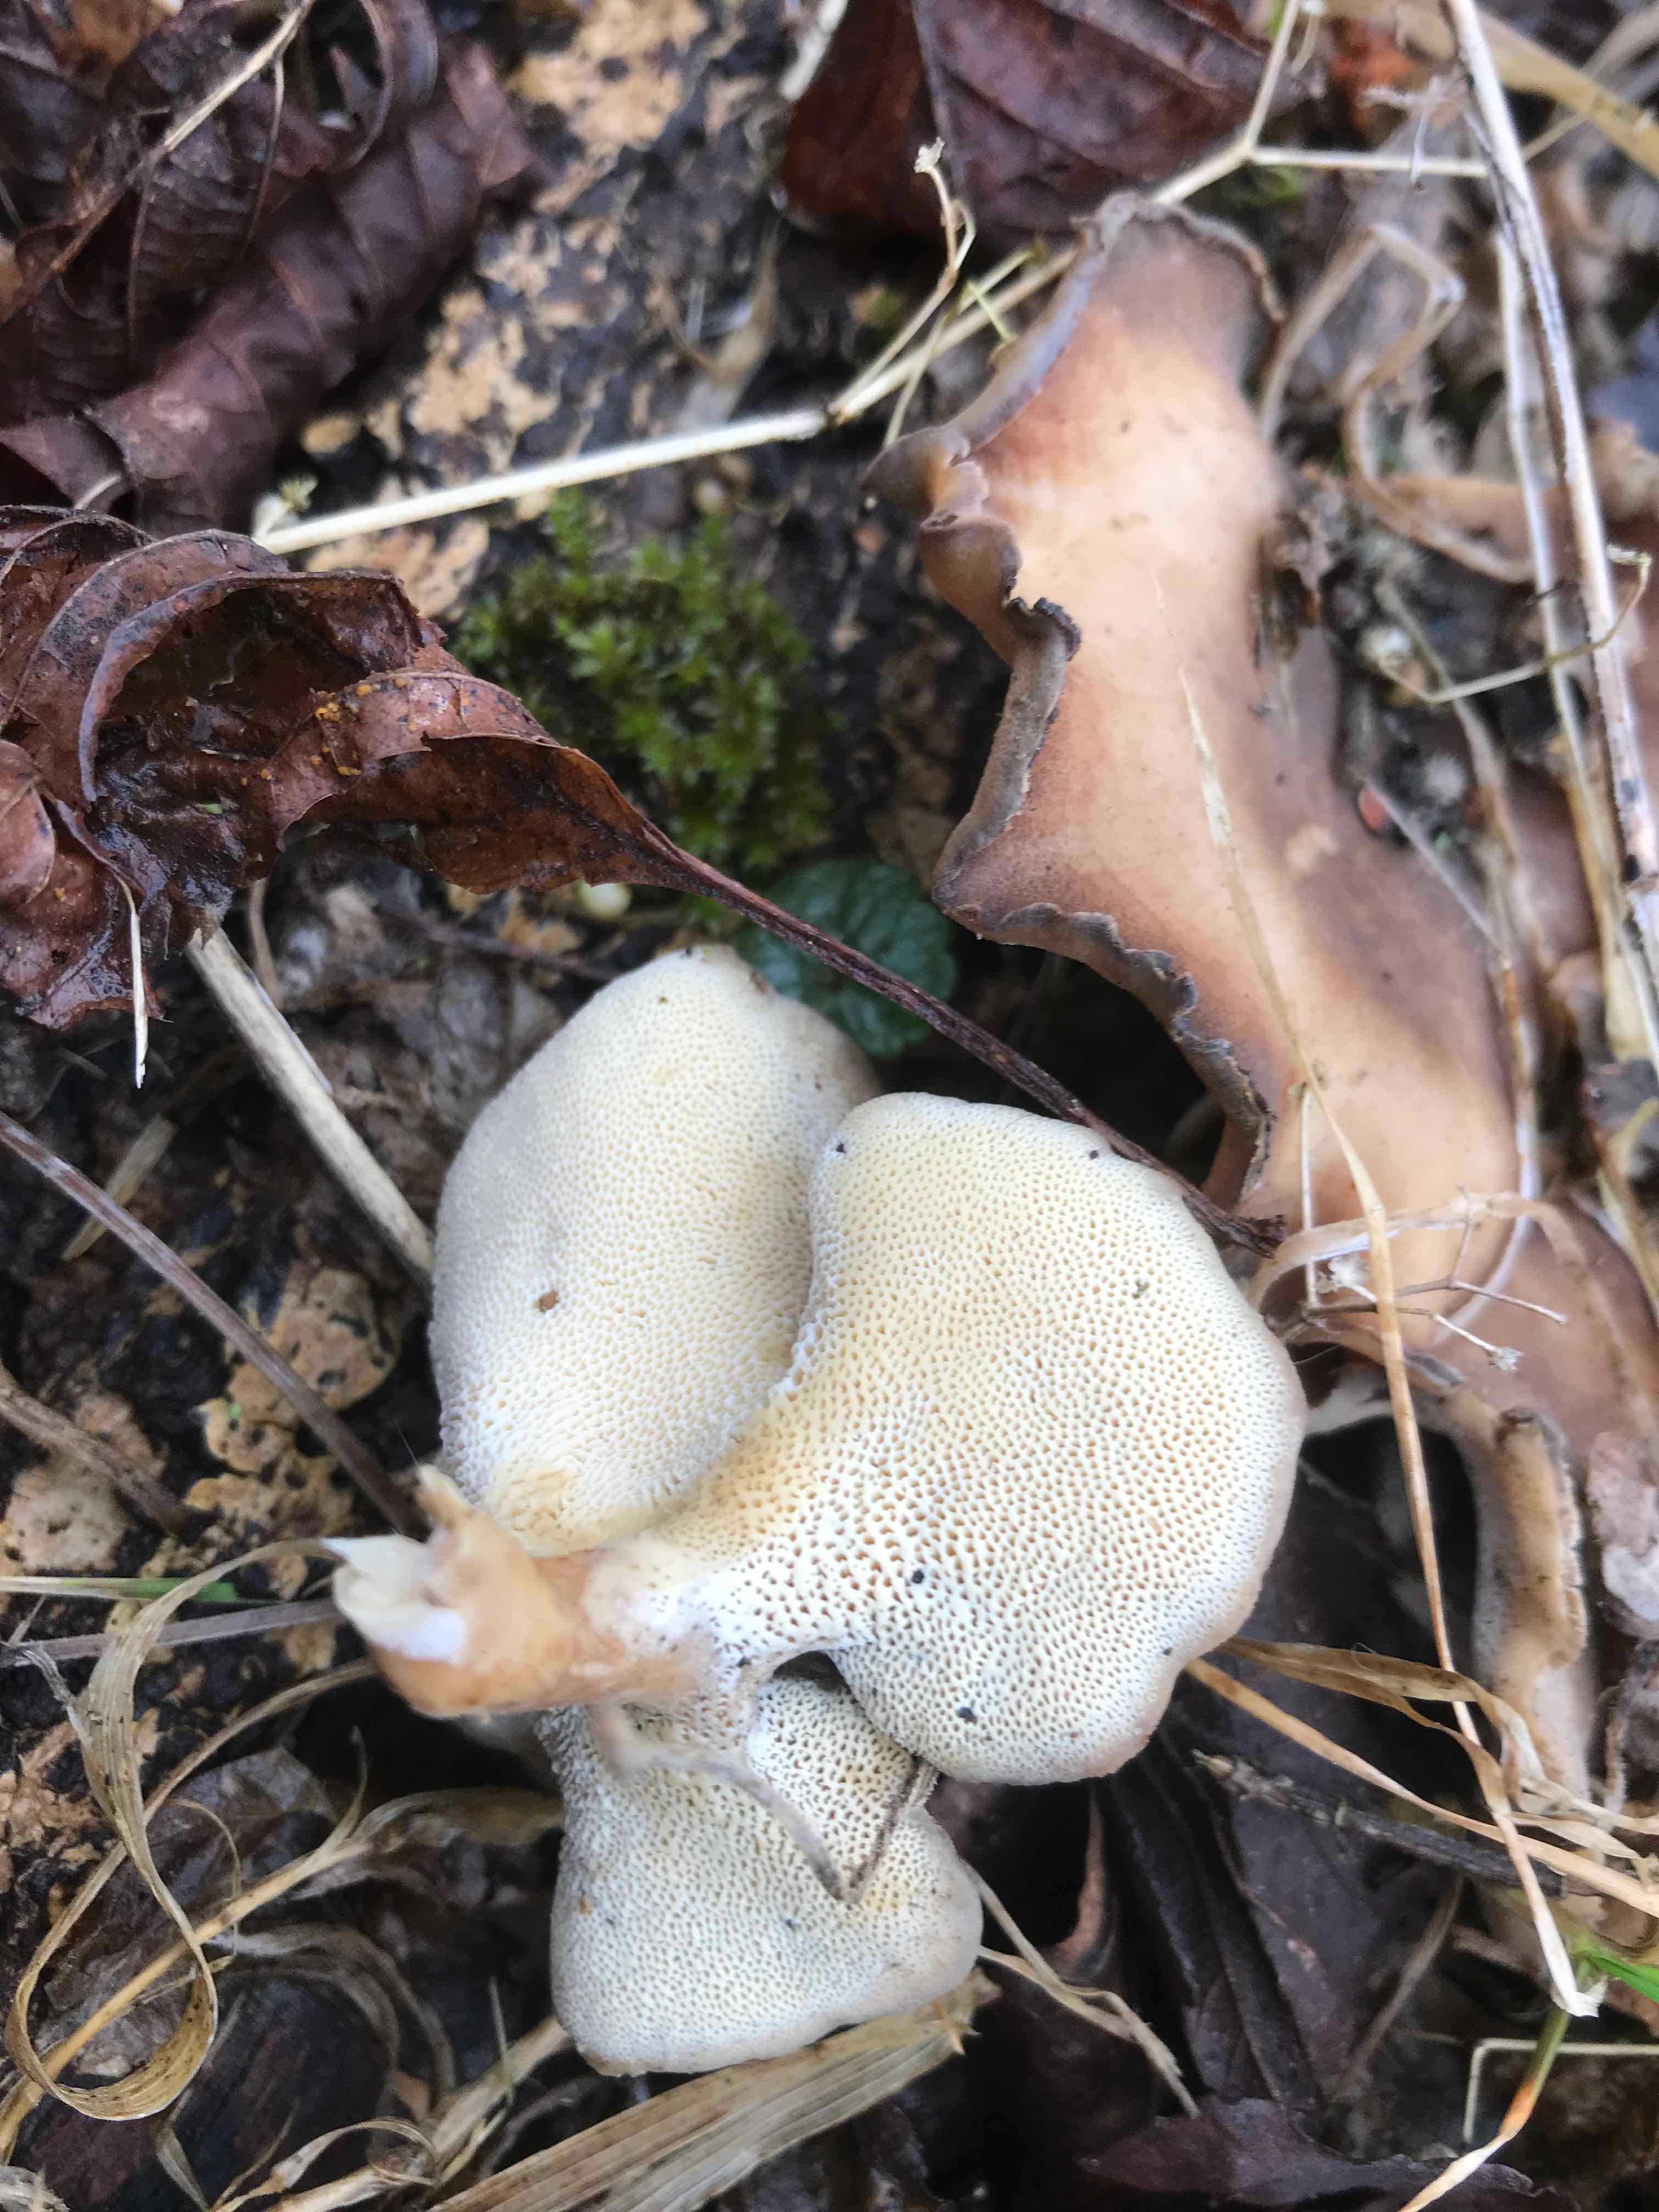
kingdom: Fungi
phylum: Basidiomycota
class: Agaricomycetes
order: Polyporales
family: Polyporaceae
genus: Lentinus
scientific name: Lentinus brumalis
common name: vinter-stilkporesvamp
